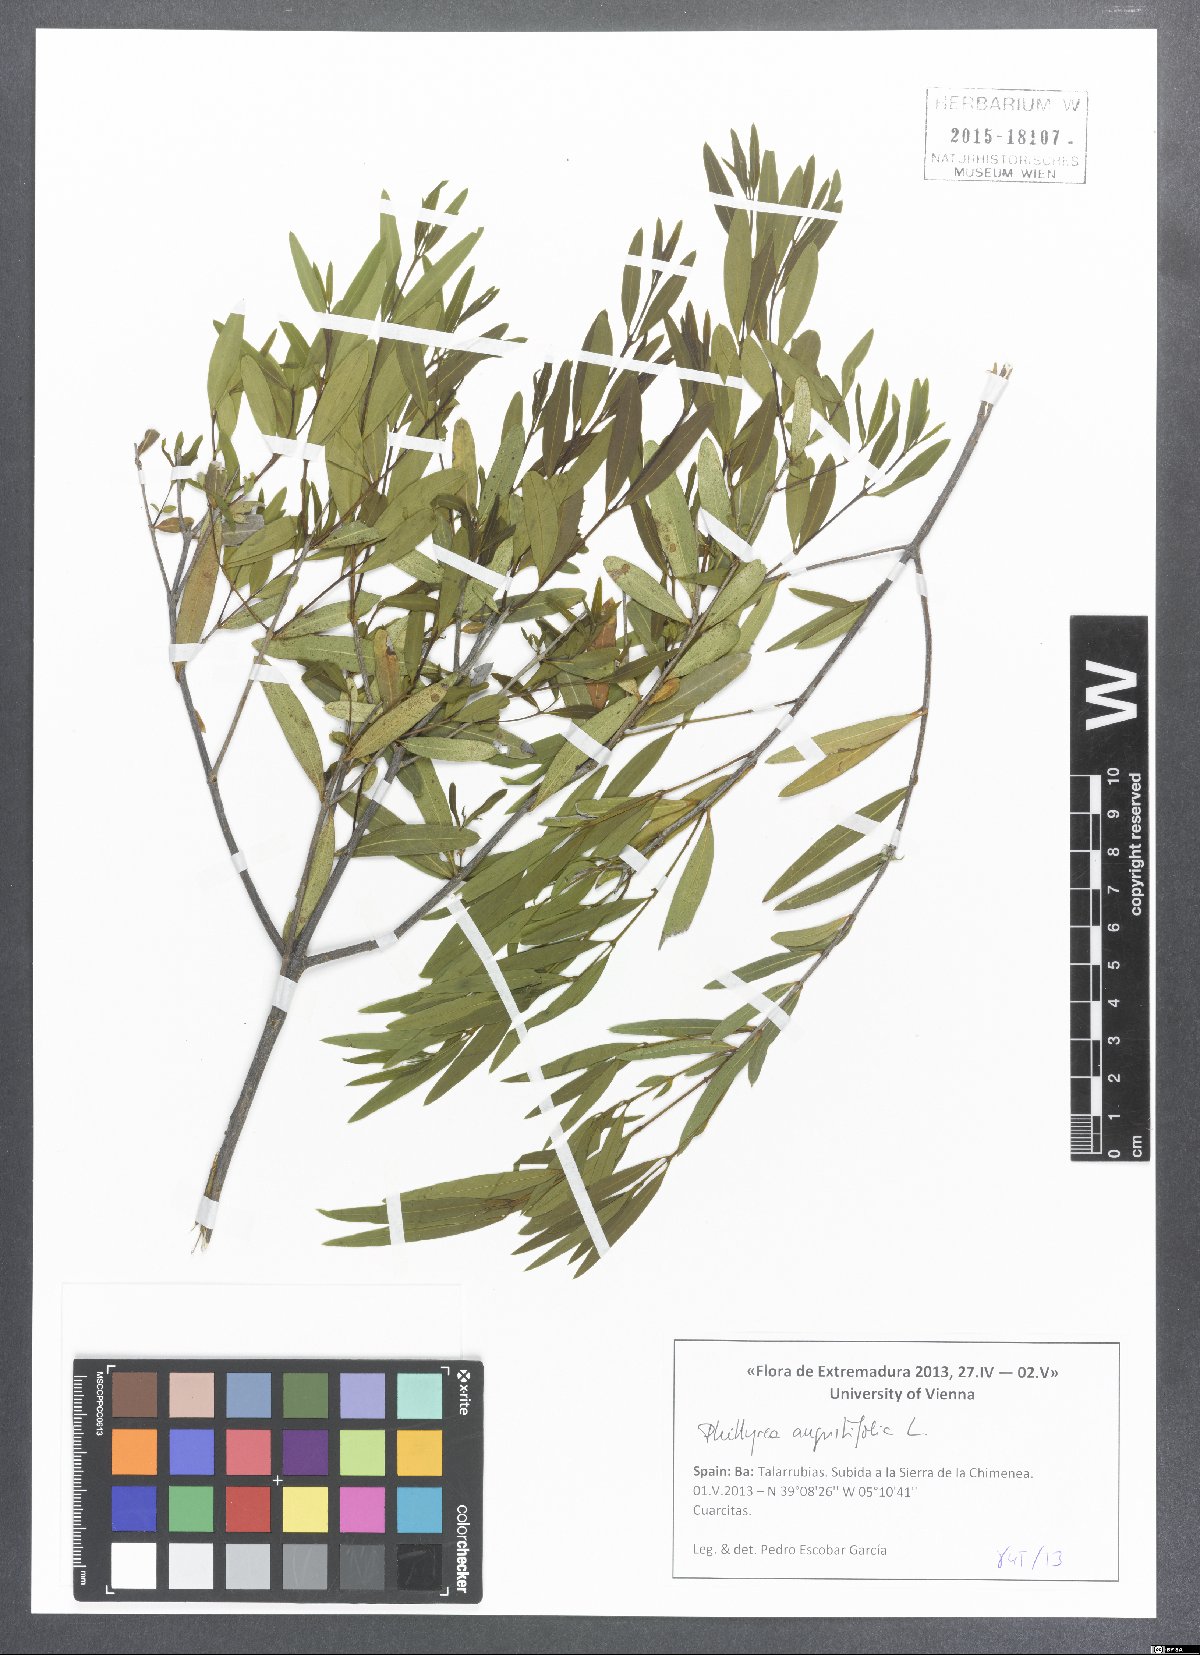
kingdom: Plantae
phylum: Tracheophyta
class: Magnoliopsida
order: Lamiales
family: Oleaceae
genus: Phillyrea
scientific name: Phillyrea angustifolia
